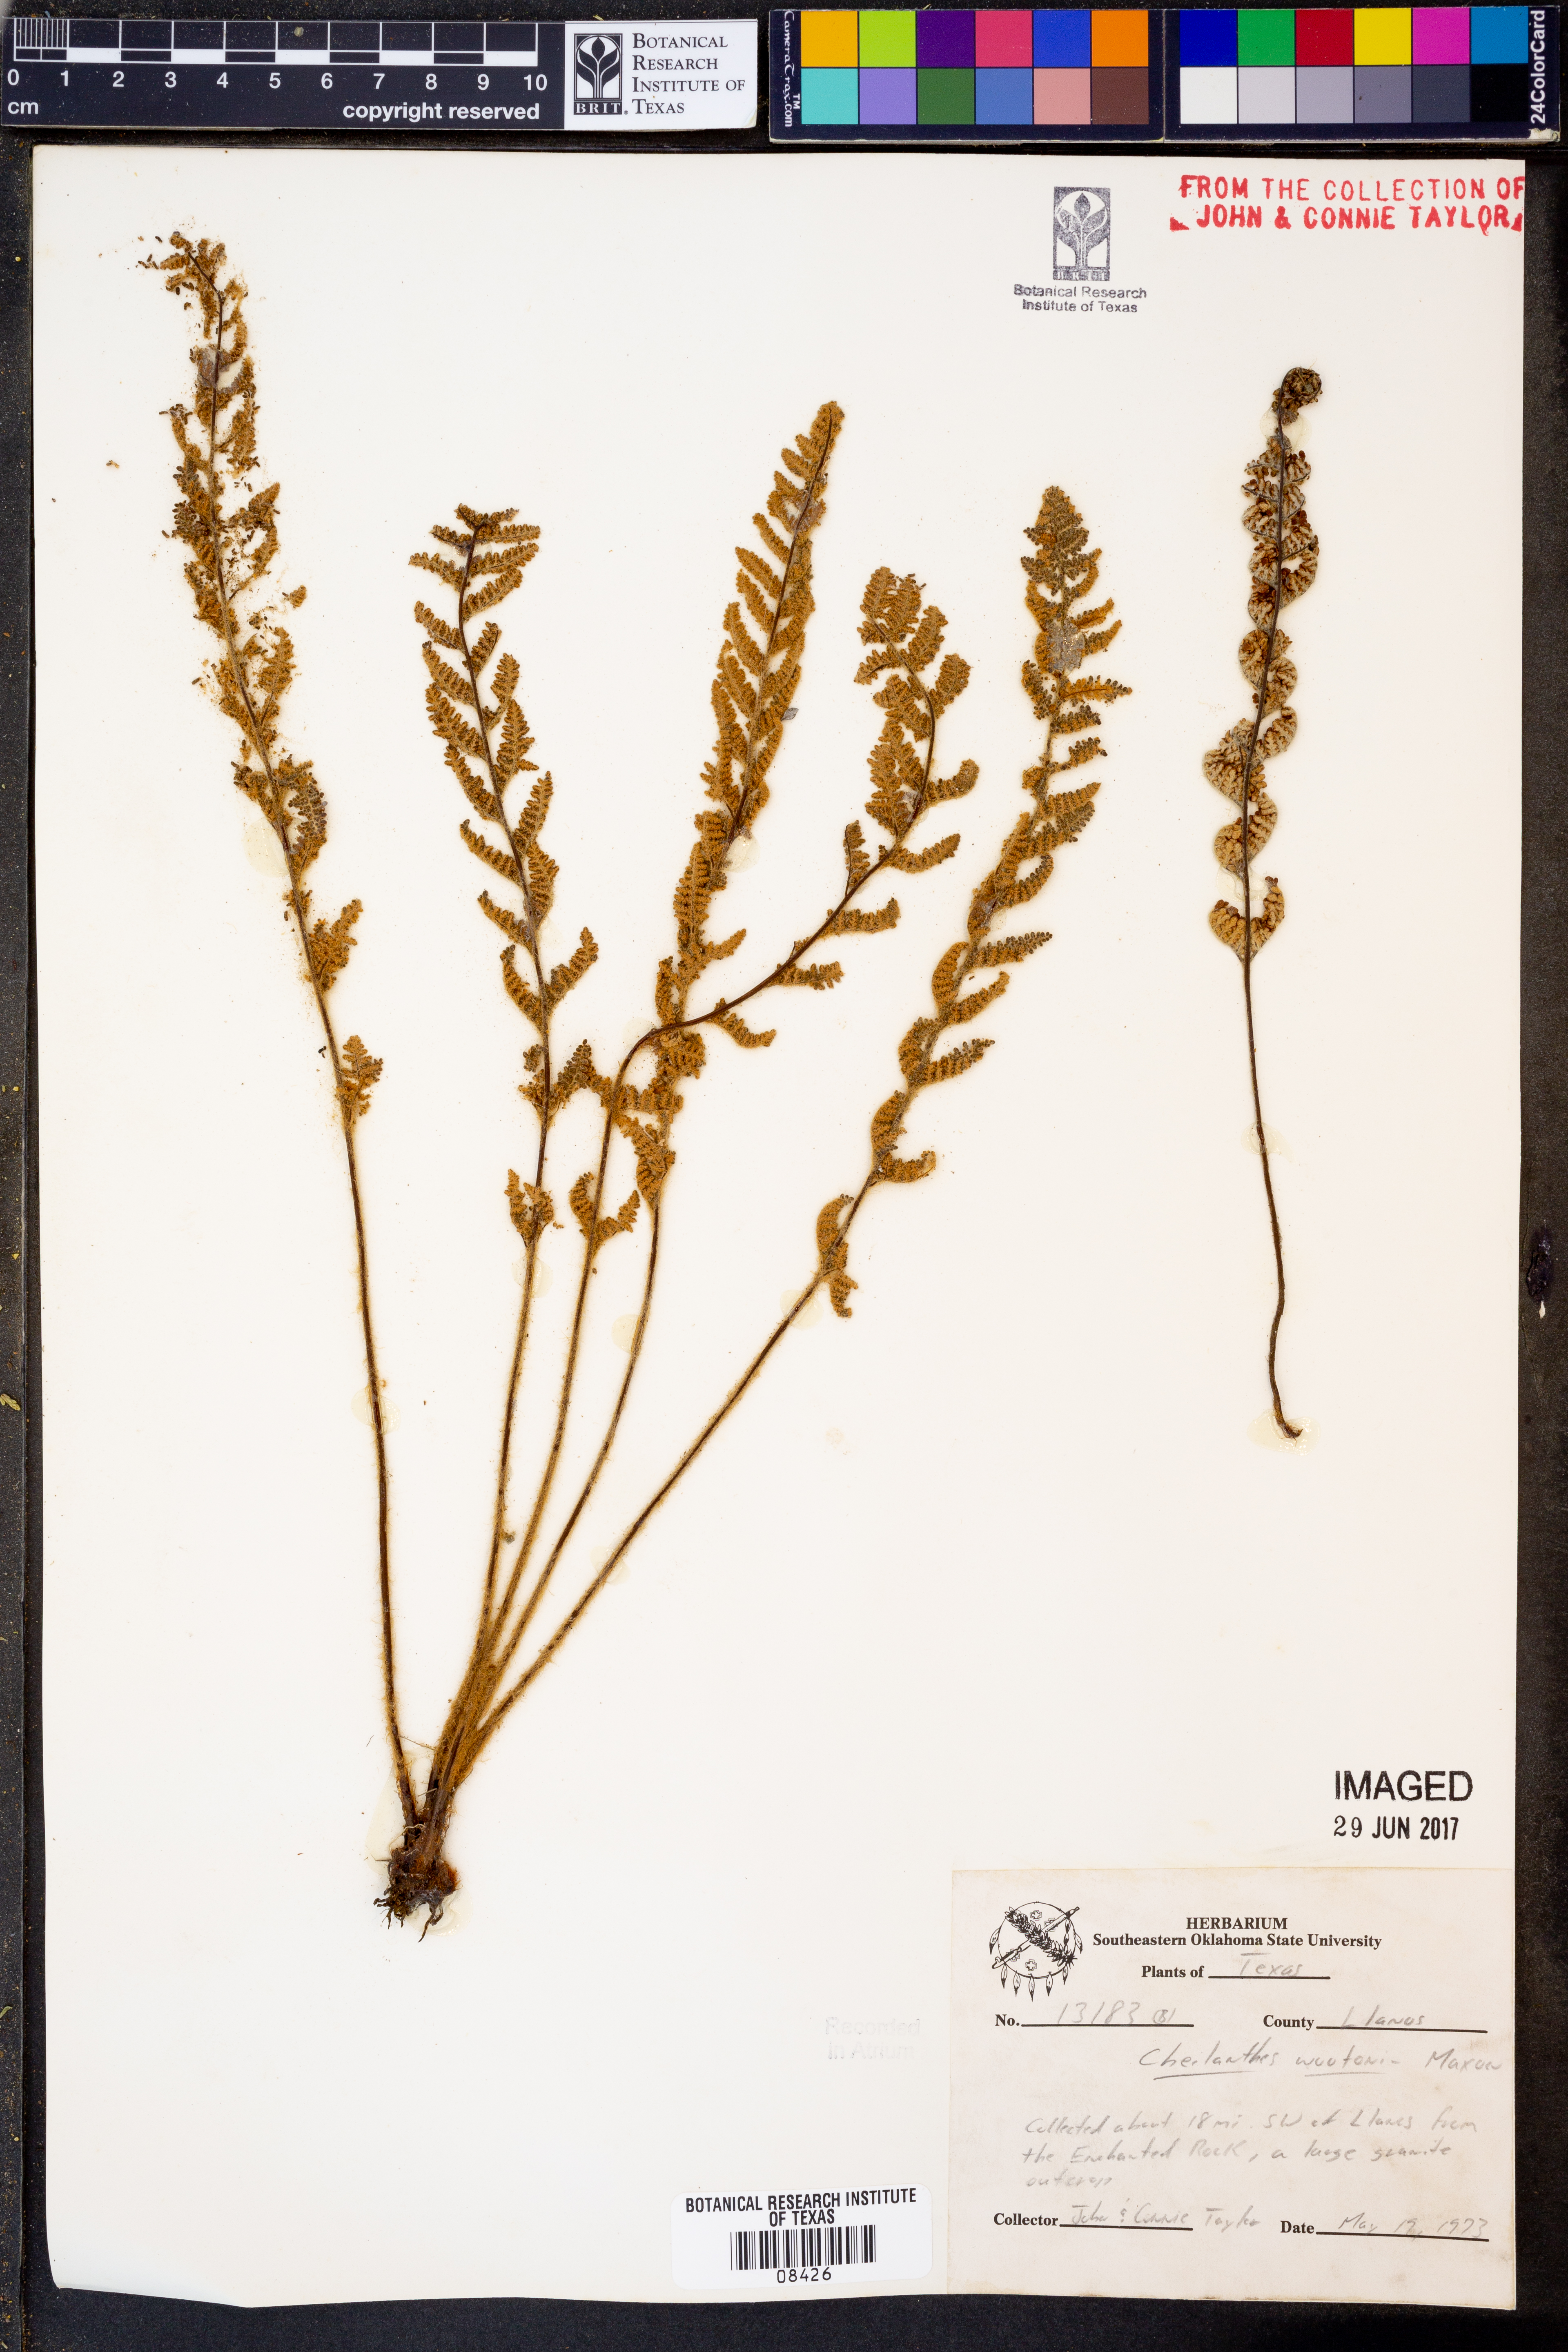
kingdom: Plantae
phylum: Tracheophyta
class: Polypodiopsida
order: Polypodiales
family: Pteridaceae
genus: Myriopteris
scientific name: Myriopteris wootonii
